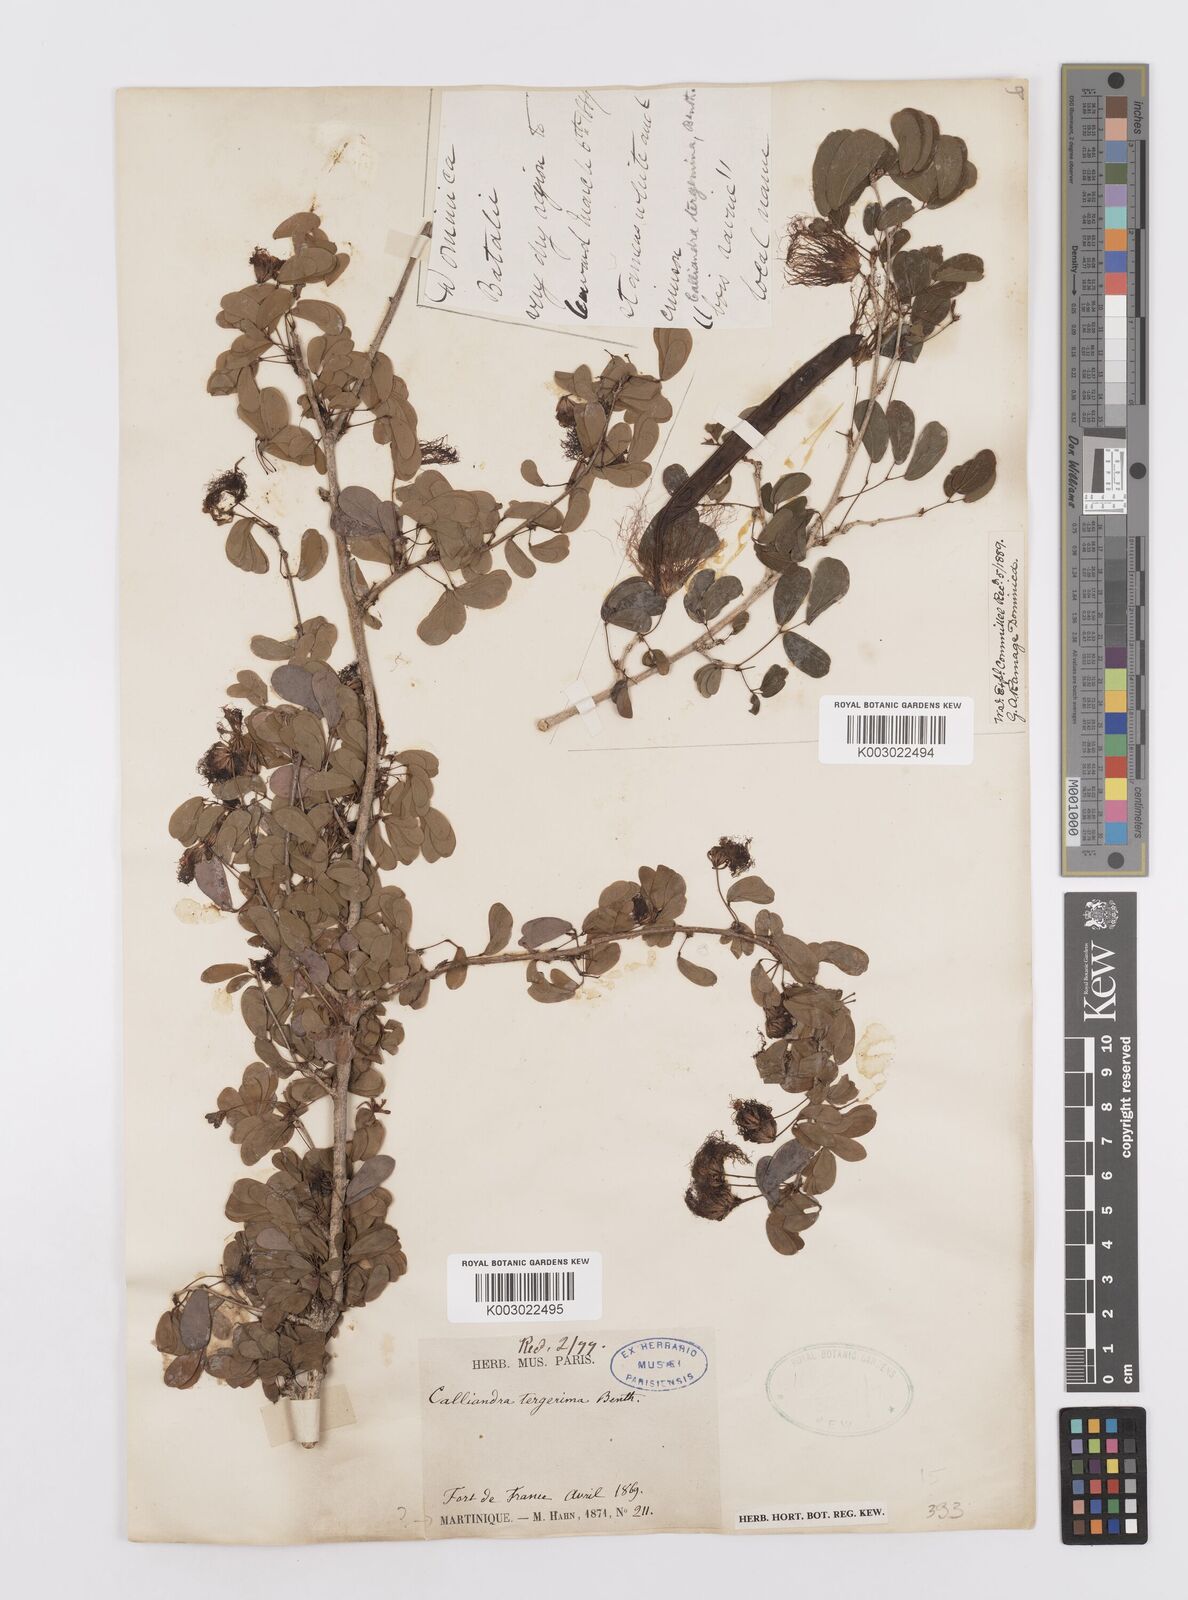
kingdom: Plantae
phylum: Tracheophyta
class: Magnoliopsida
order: Fabales
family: Fabaceae
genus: Calliandra
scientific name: Calliandra tergemina
